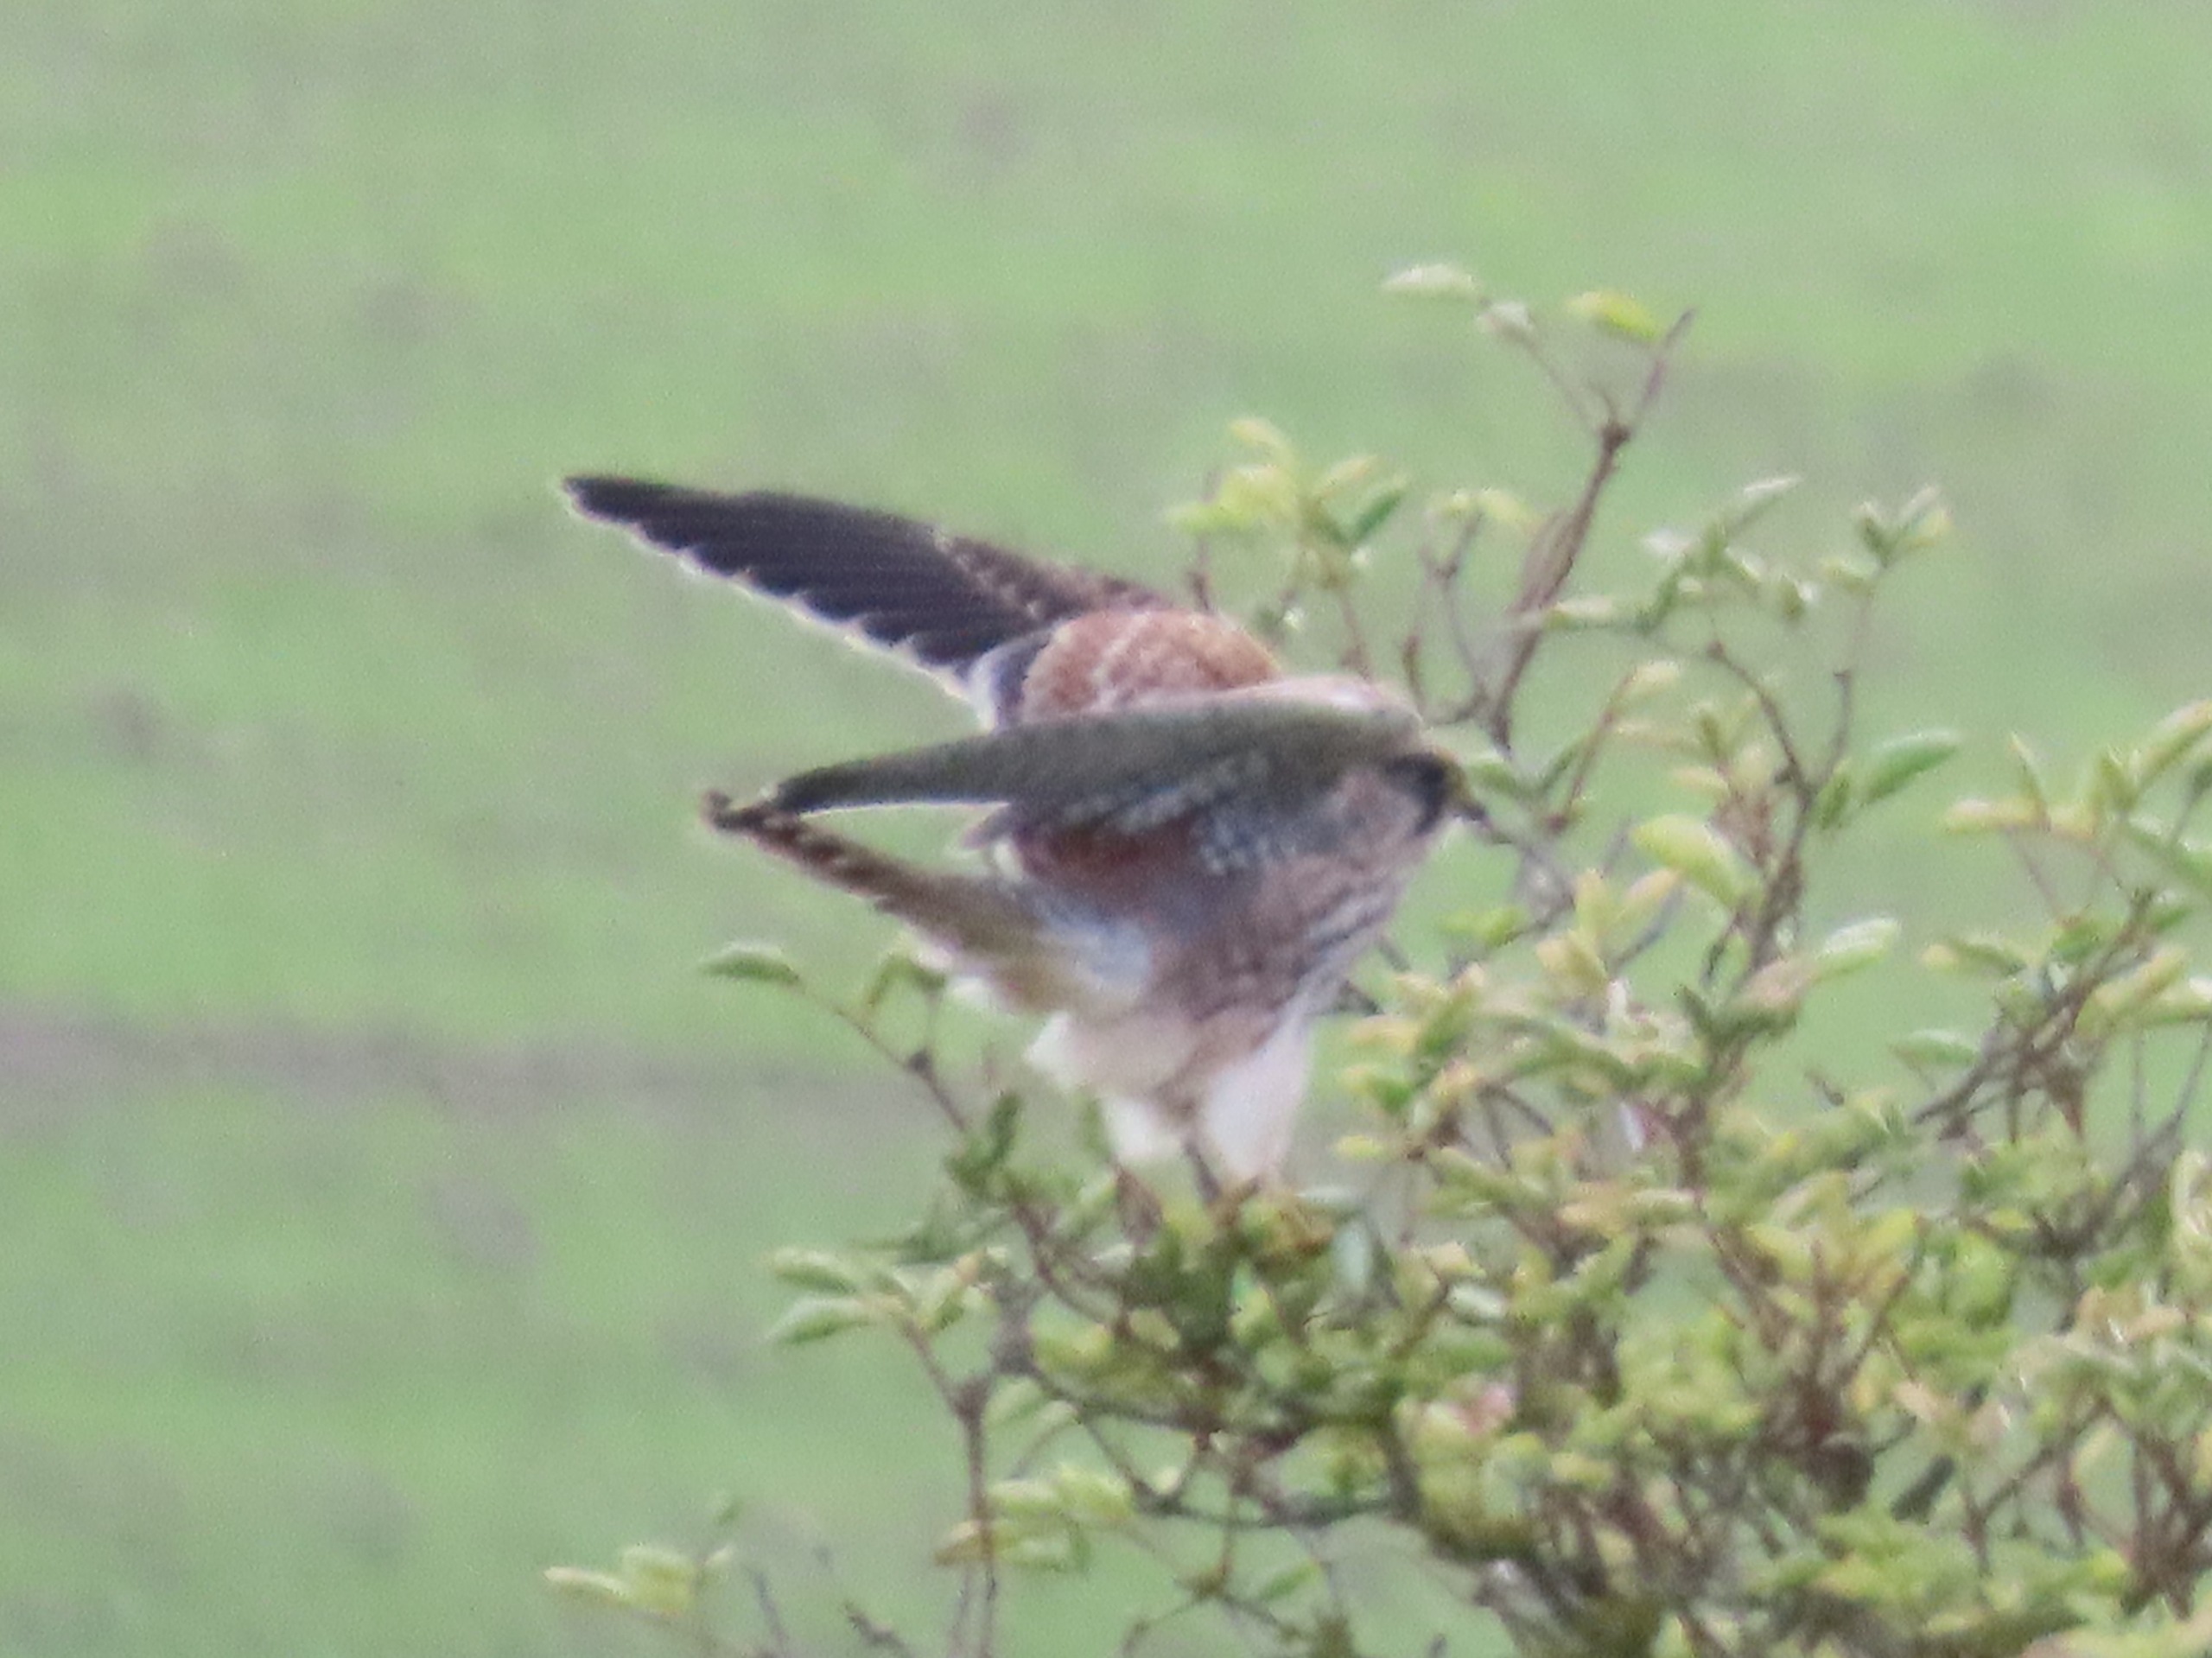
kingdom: Animalia
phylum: Chordata
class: Aves
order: Falconiformes
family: Falconidae
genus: Falco
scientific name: Falco tinnunculus
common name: Tårnfalk
